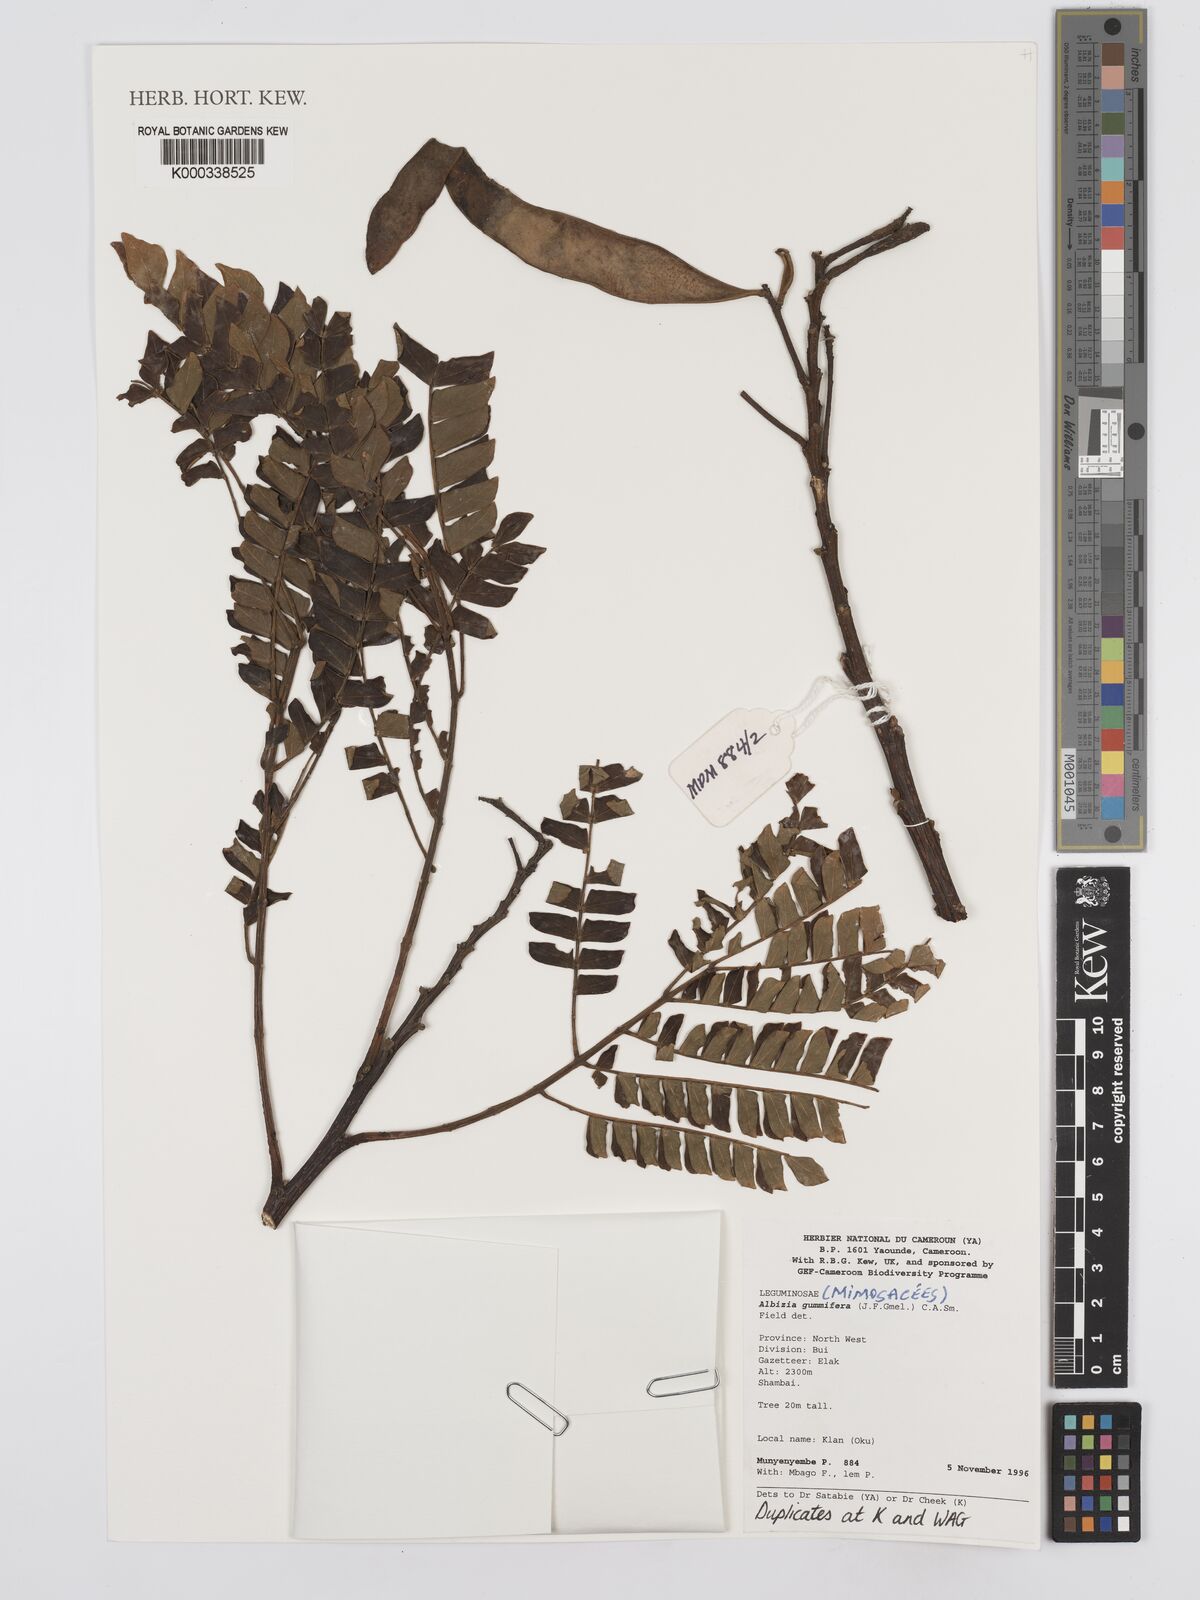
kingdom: Plantae
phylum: Tracheophyta
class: Magnoliopsida
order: Fabales
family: Fabaceae
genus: Albizia
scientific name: Albizia gummifera
